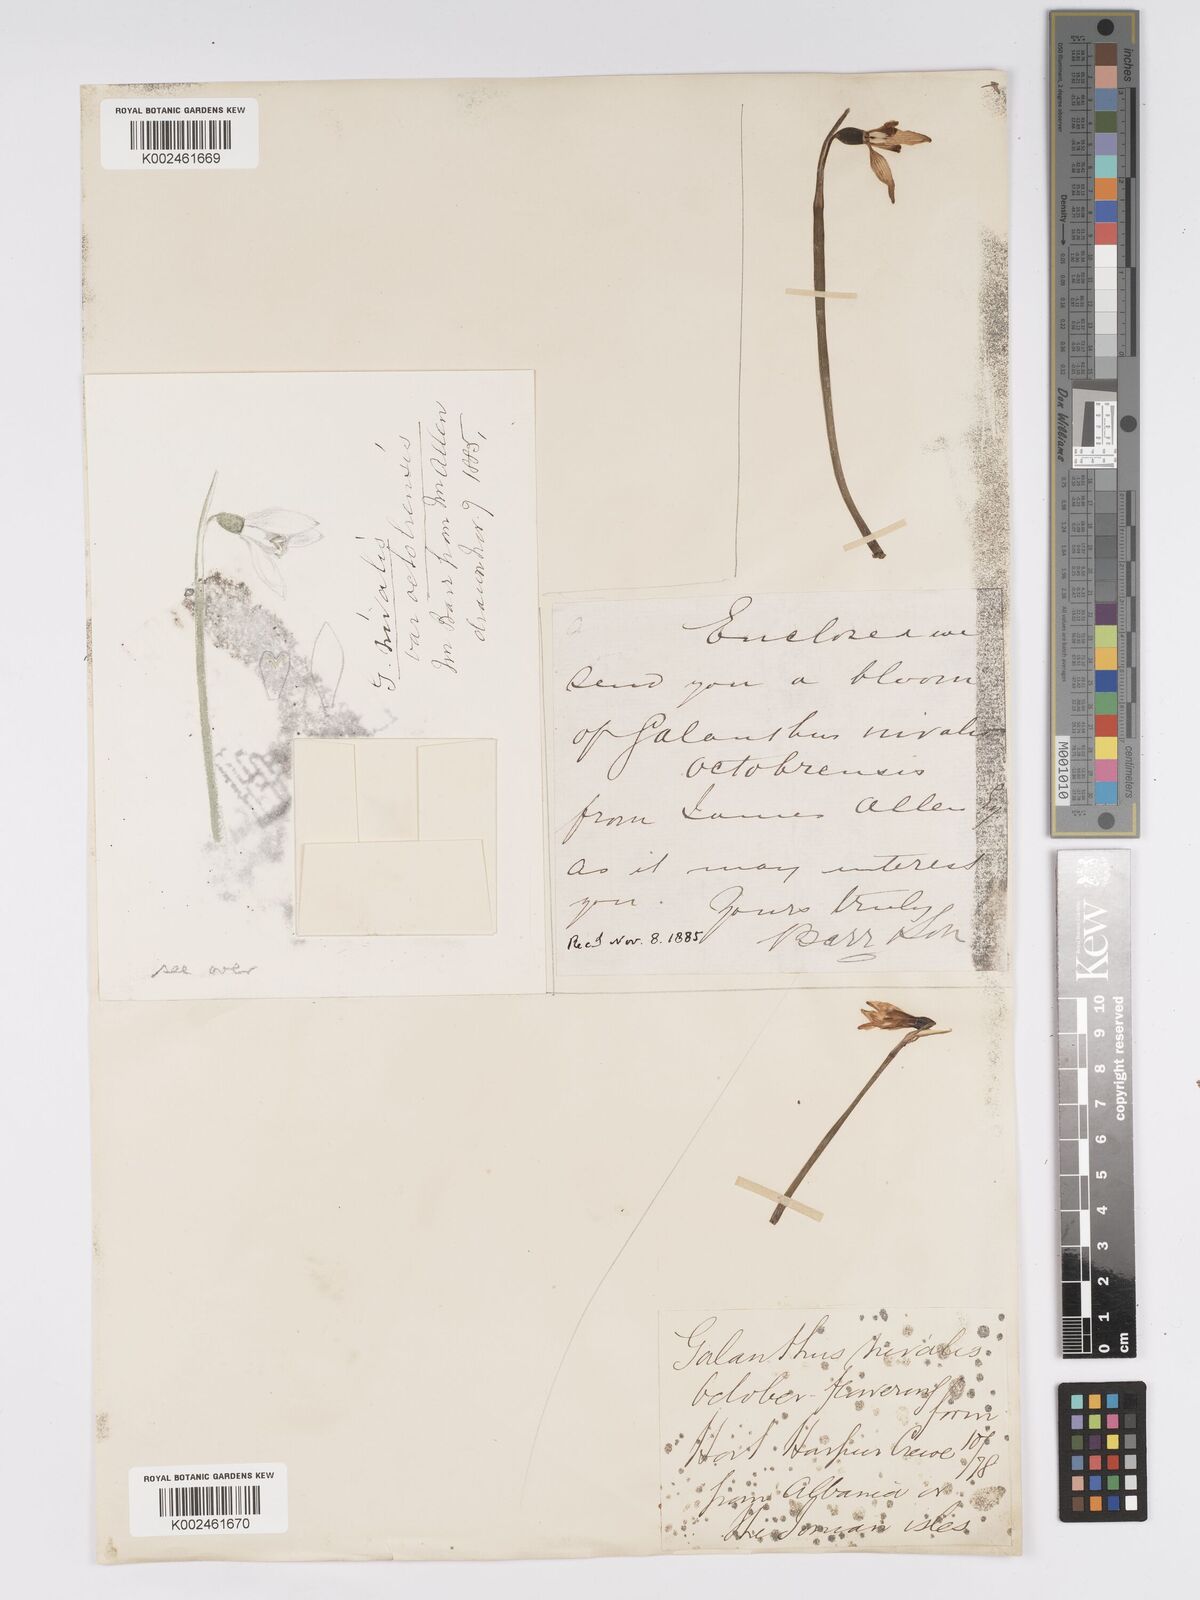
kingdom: Plantae
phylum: Tracheophyta
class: Liliopsida
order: Asparagales
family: Amaryllidaceae
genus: Galanthus
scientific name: Galanthus
